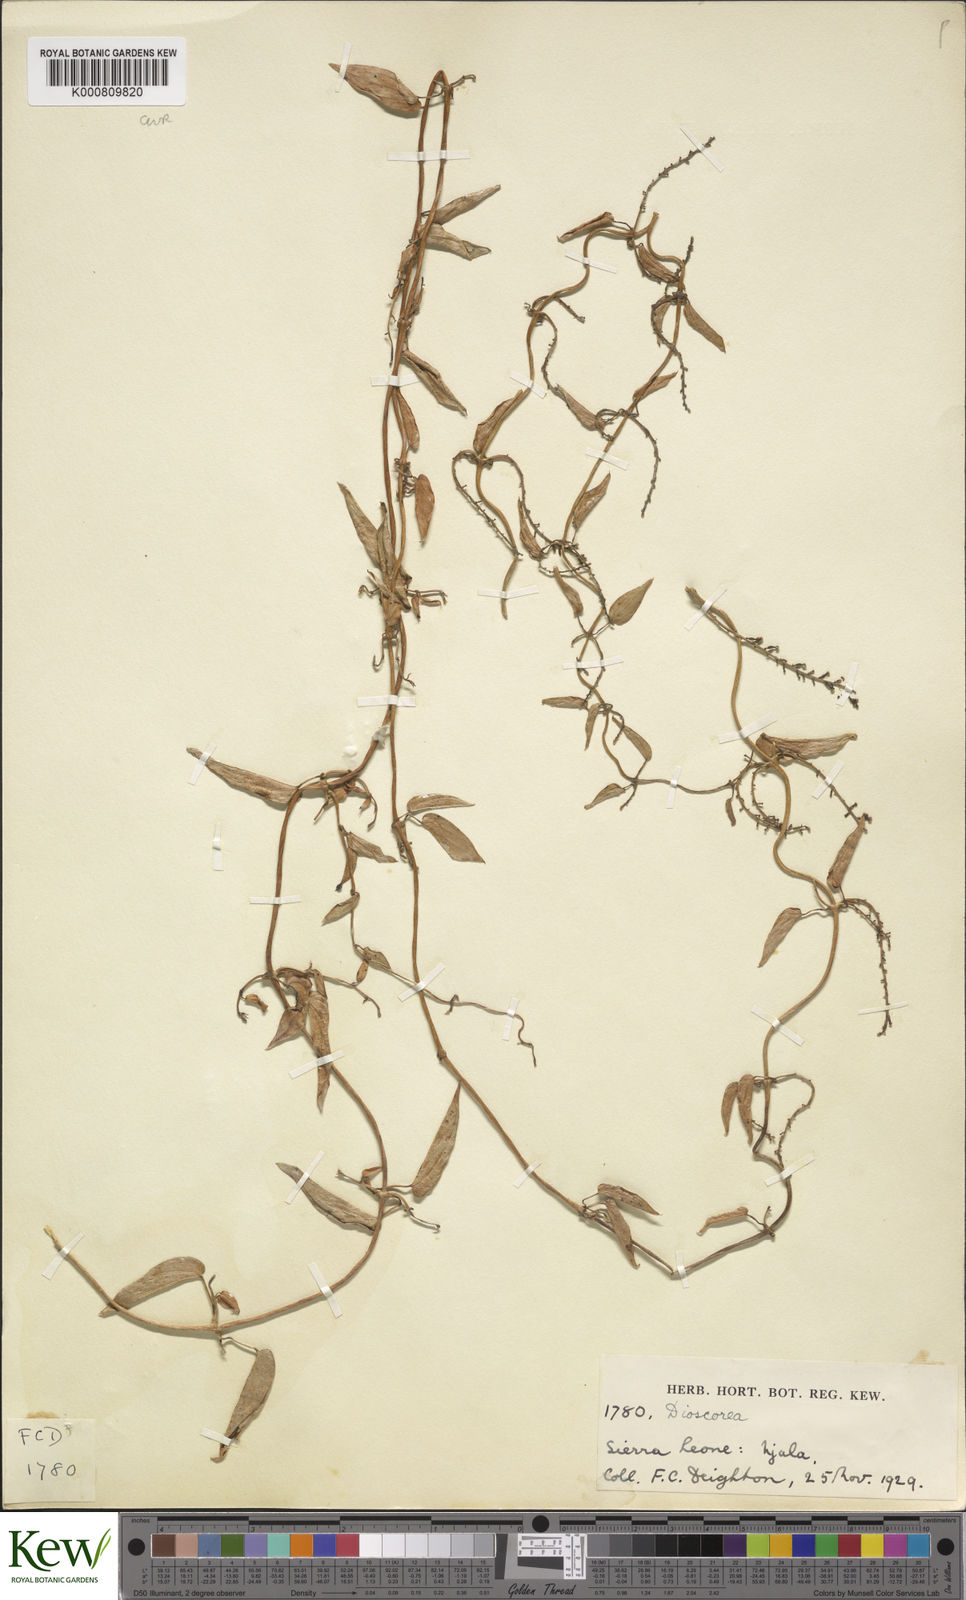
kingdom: Plantae
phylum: Tracheophyta
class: Liliopsida
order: Dioscoreales
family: Dioscoreaceae
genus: Dioscorea
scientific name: Dioscorea togoensis
